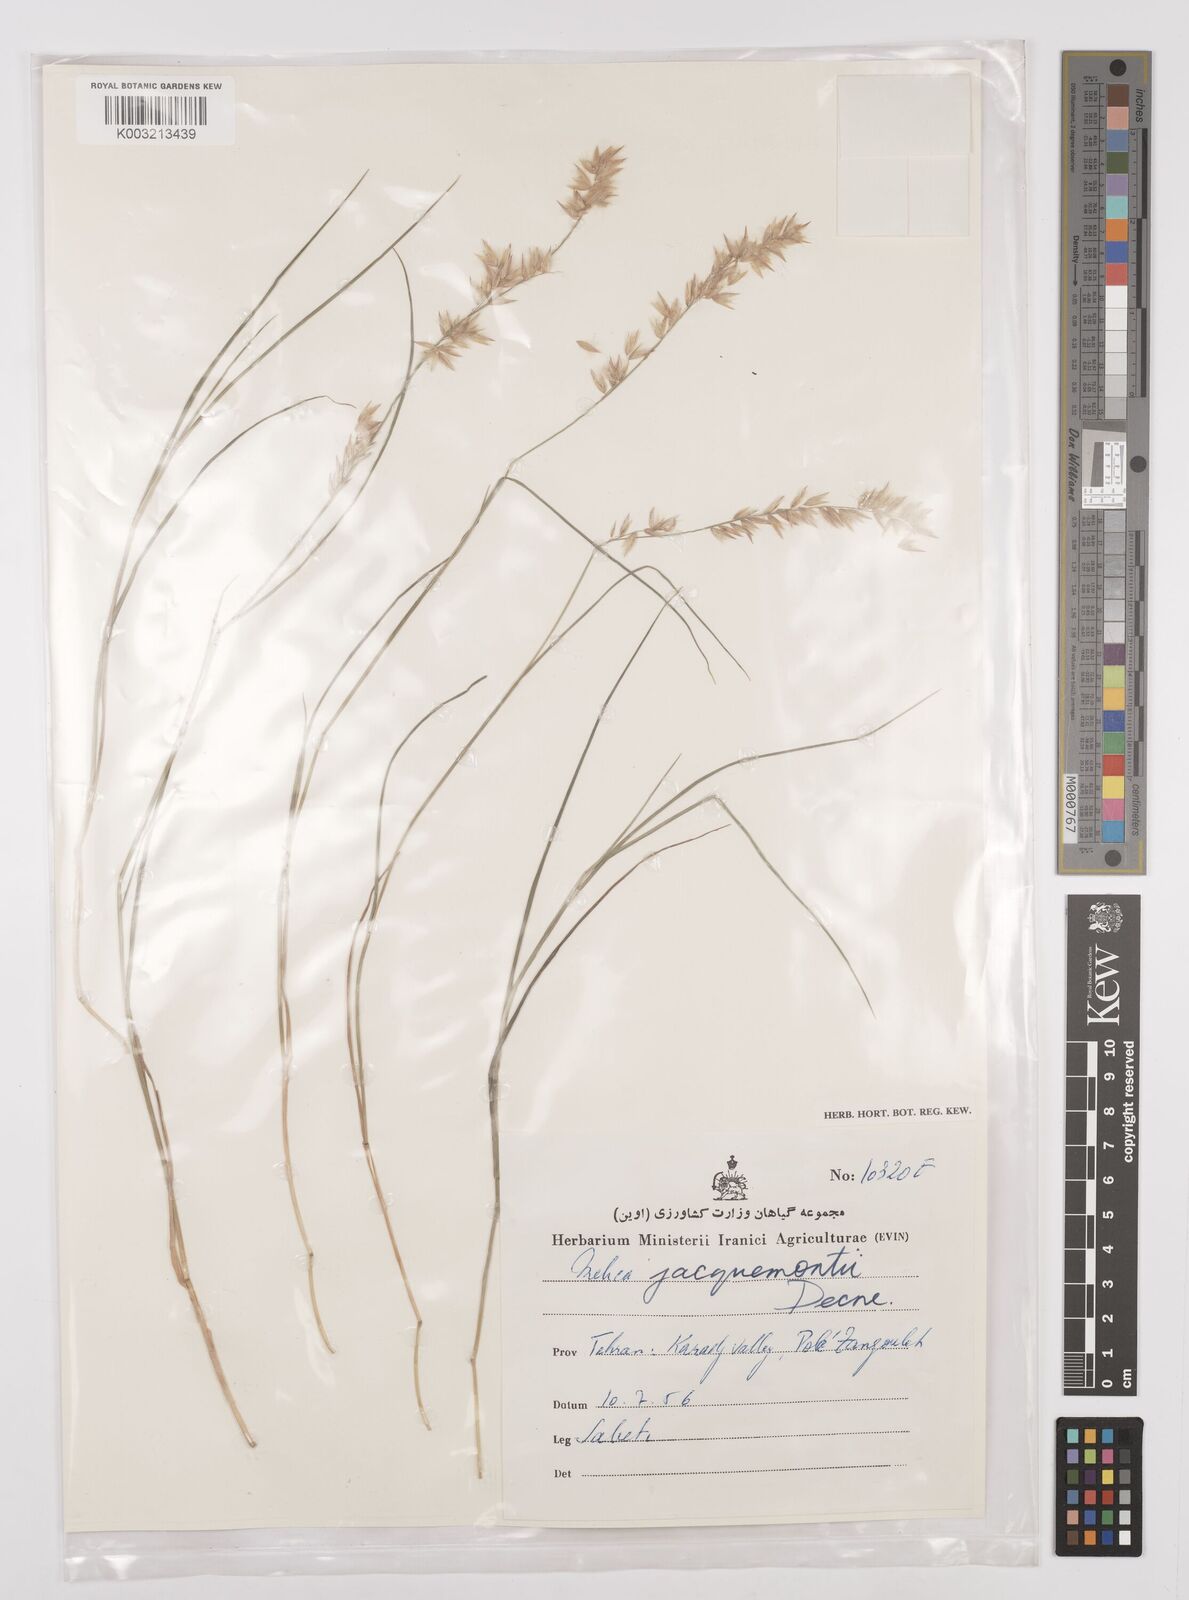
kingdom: Plantae
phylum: Tracheophyta
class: Liliopsida
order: Poales
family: Poaceae
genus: Melica
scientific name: Melica persica
